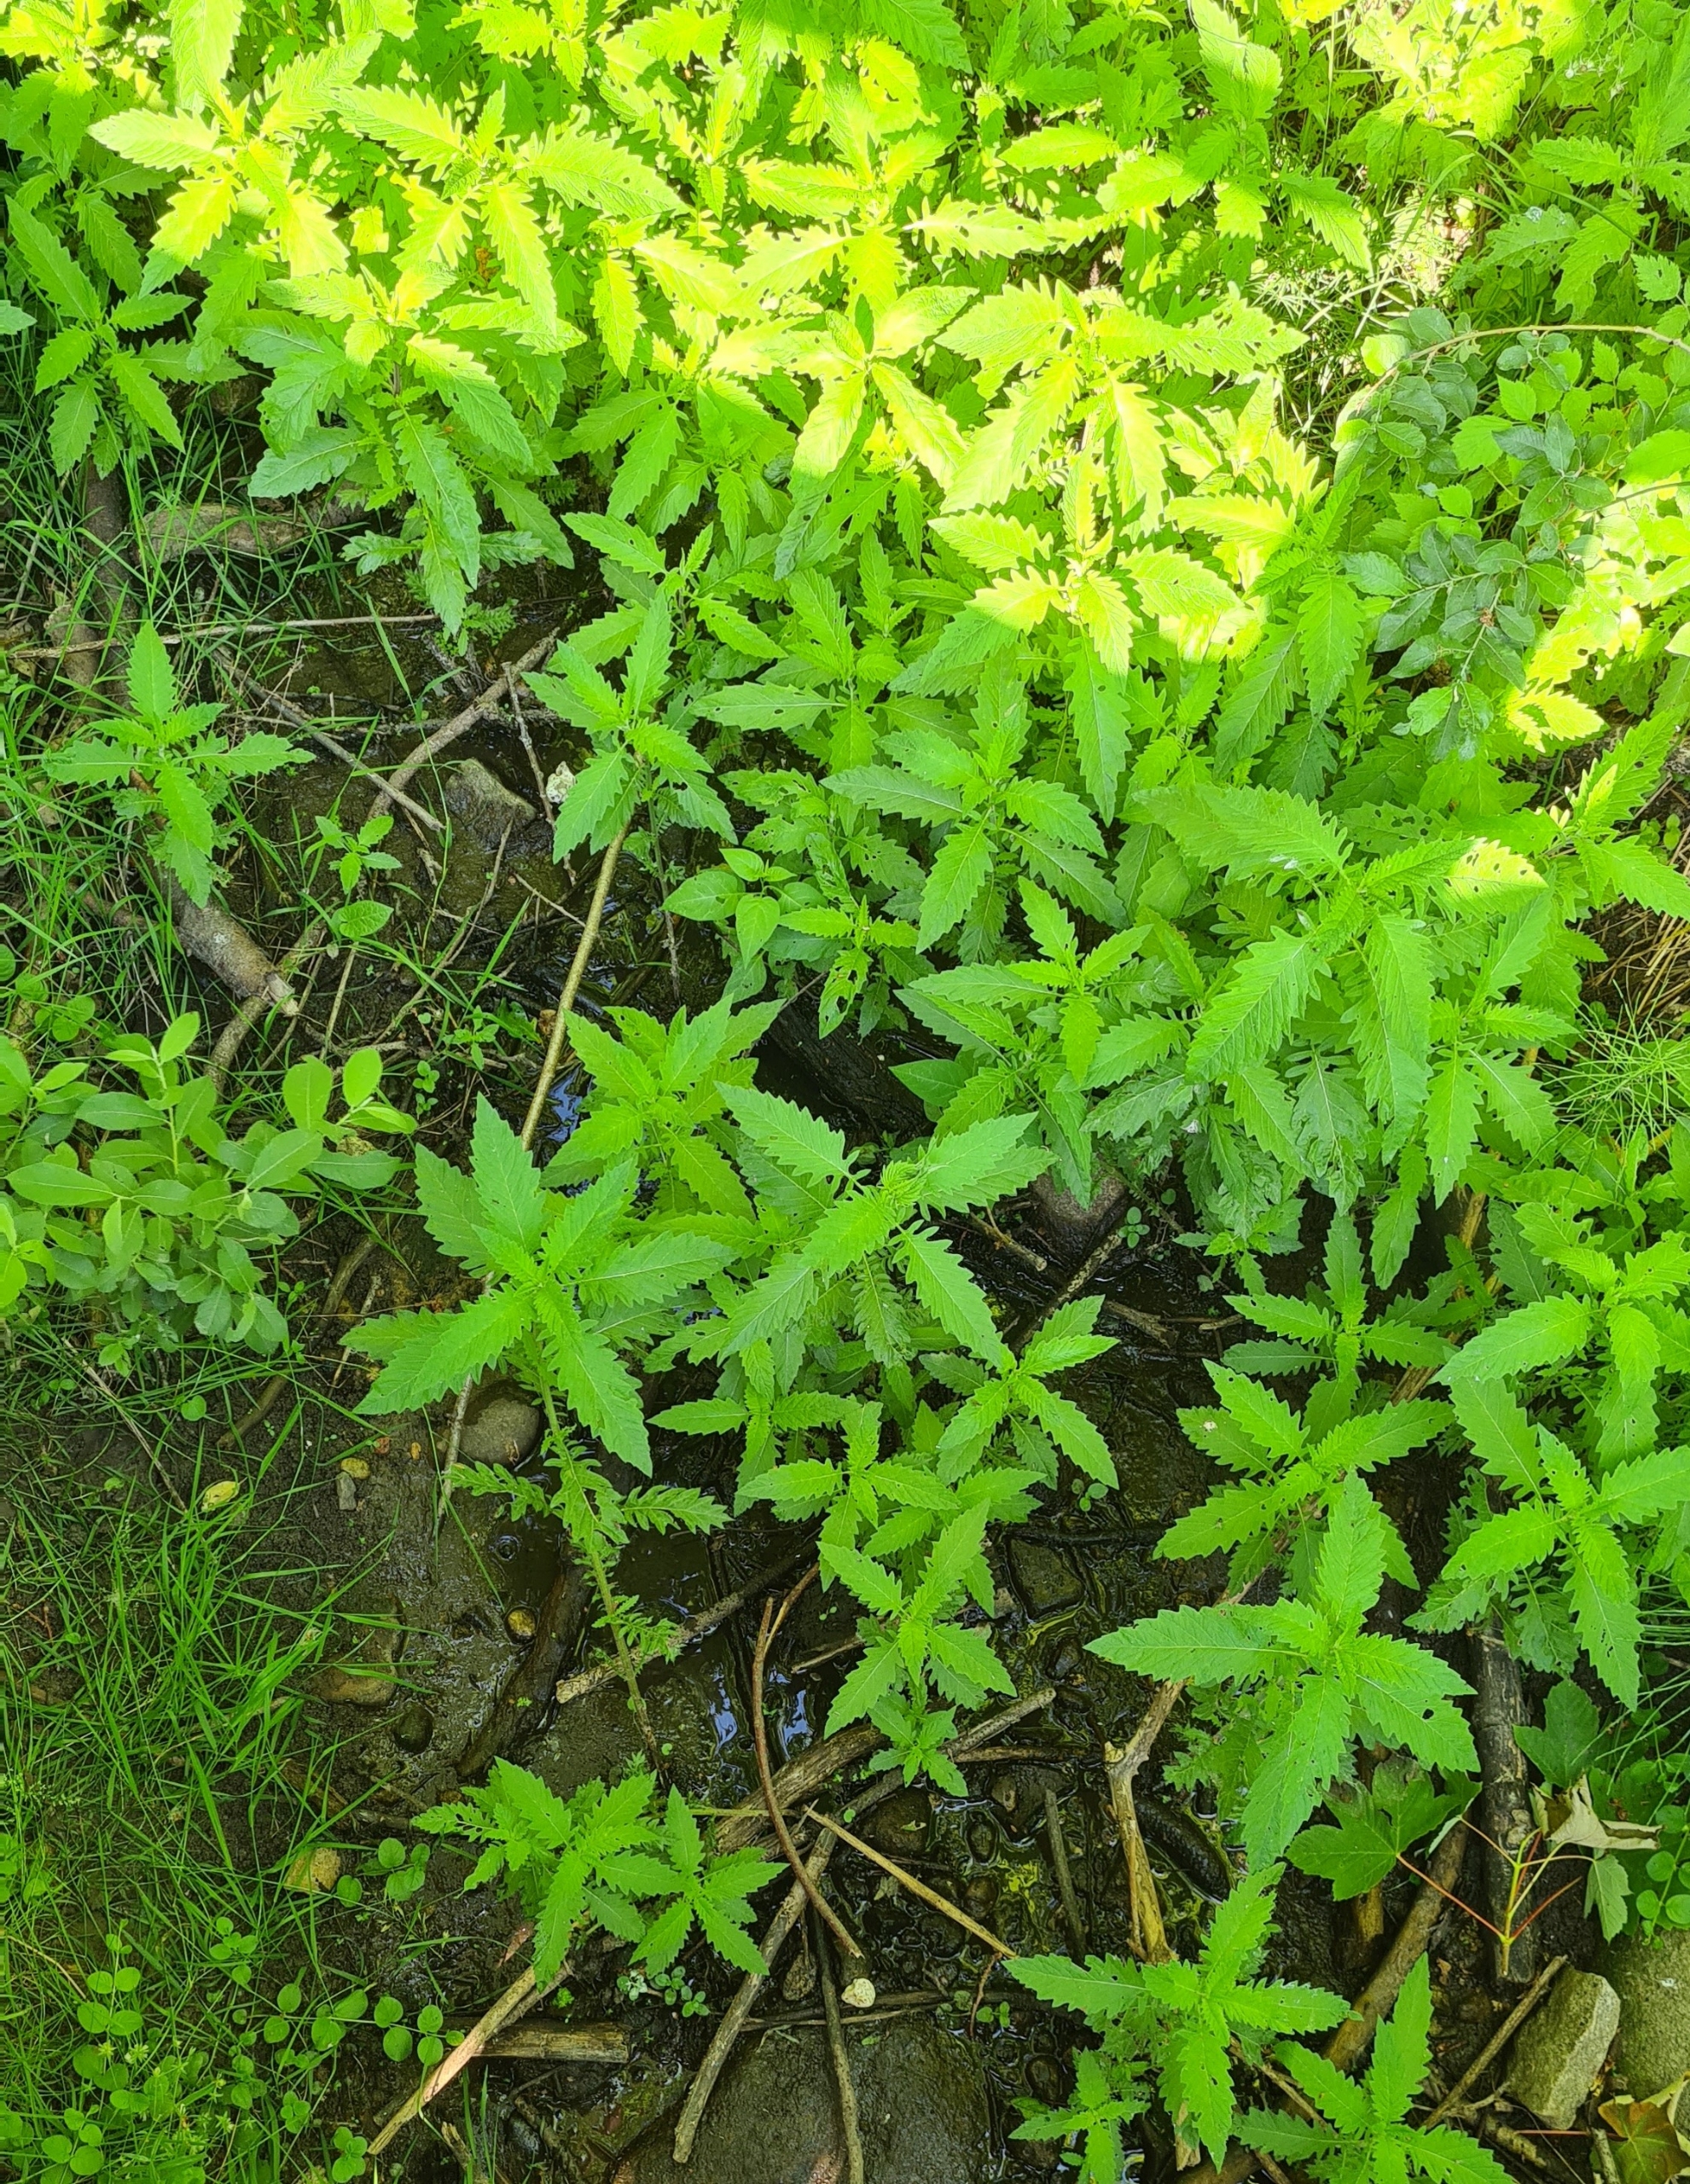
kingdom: Plantae
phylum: Tracheophyta
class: Magnoliopsida
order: Lamiales
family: Lamiaceae
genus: Lycopus
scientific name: Lycopus europaeus
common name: Sværtevæld
